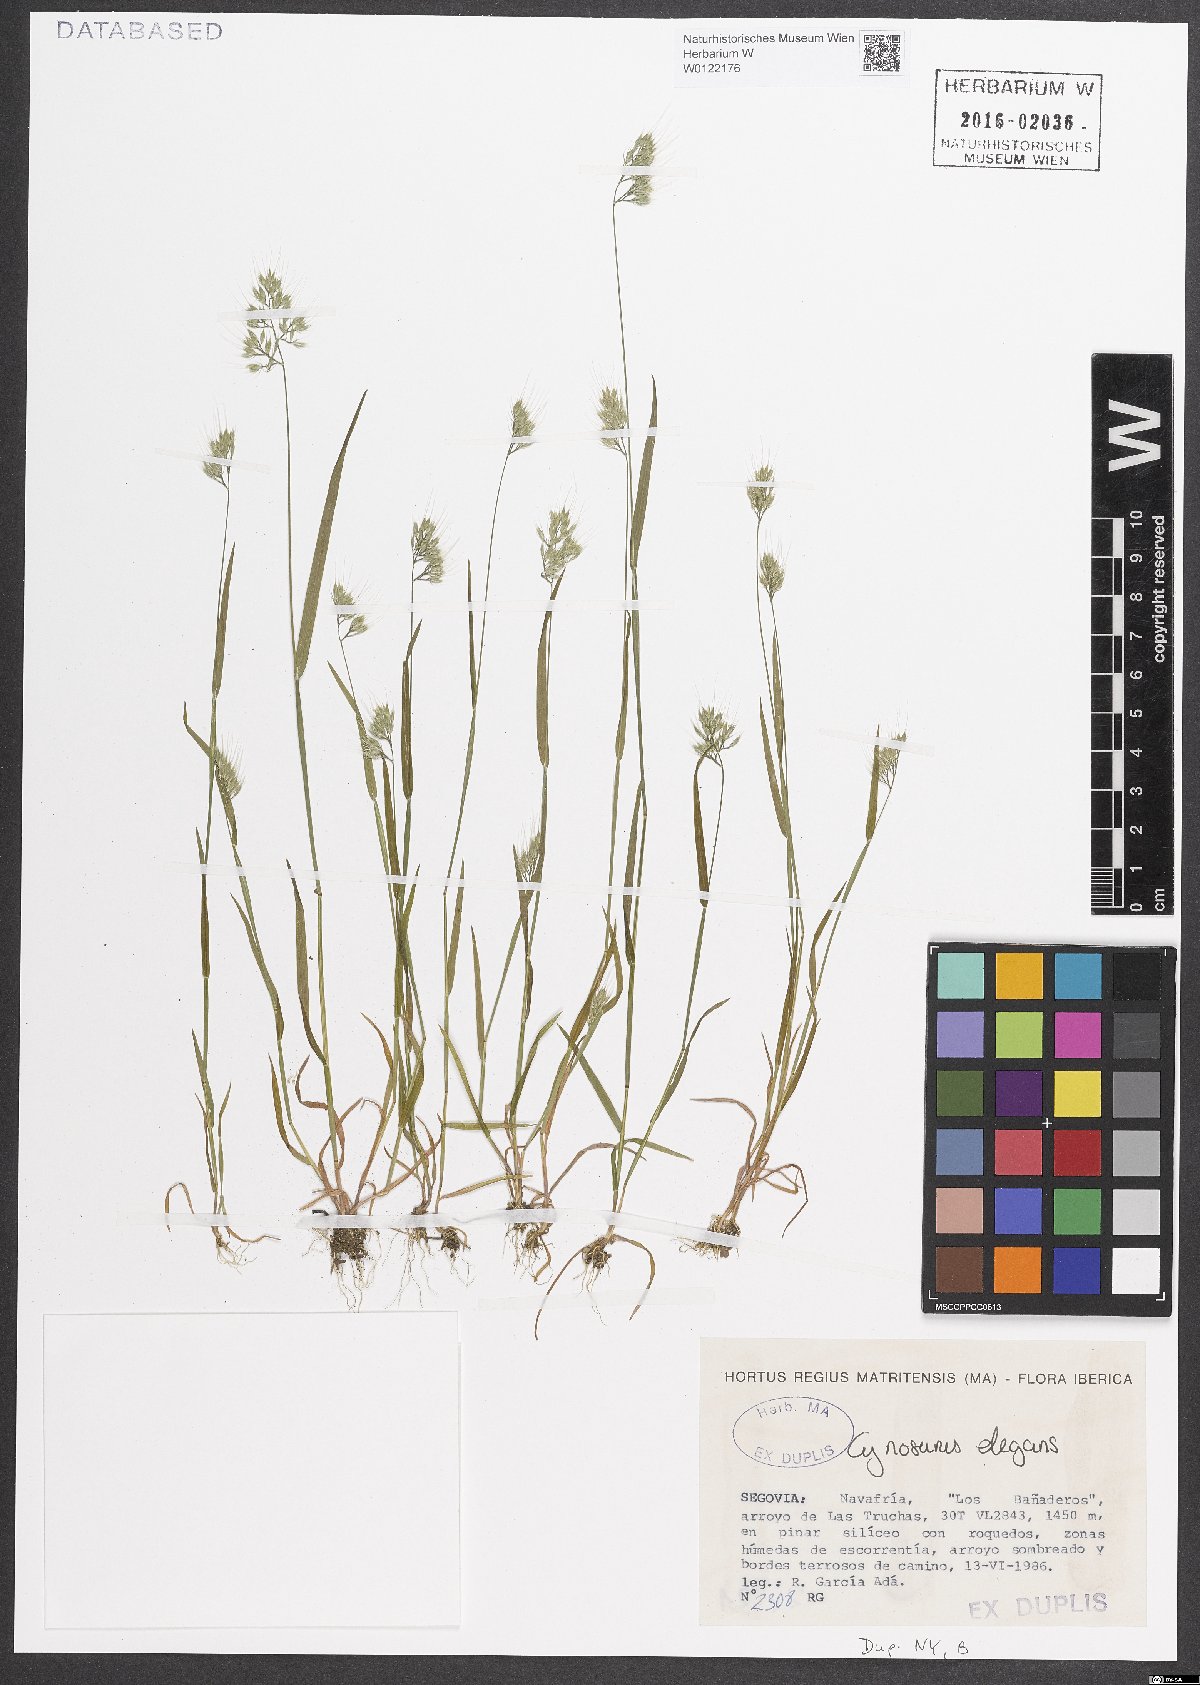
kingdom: Plantae
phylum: Tracheophyta
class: Liliopsida
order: Poales
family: Poaceae
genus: Cynosurus
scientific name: Cynosurus elegans
